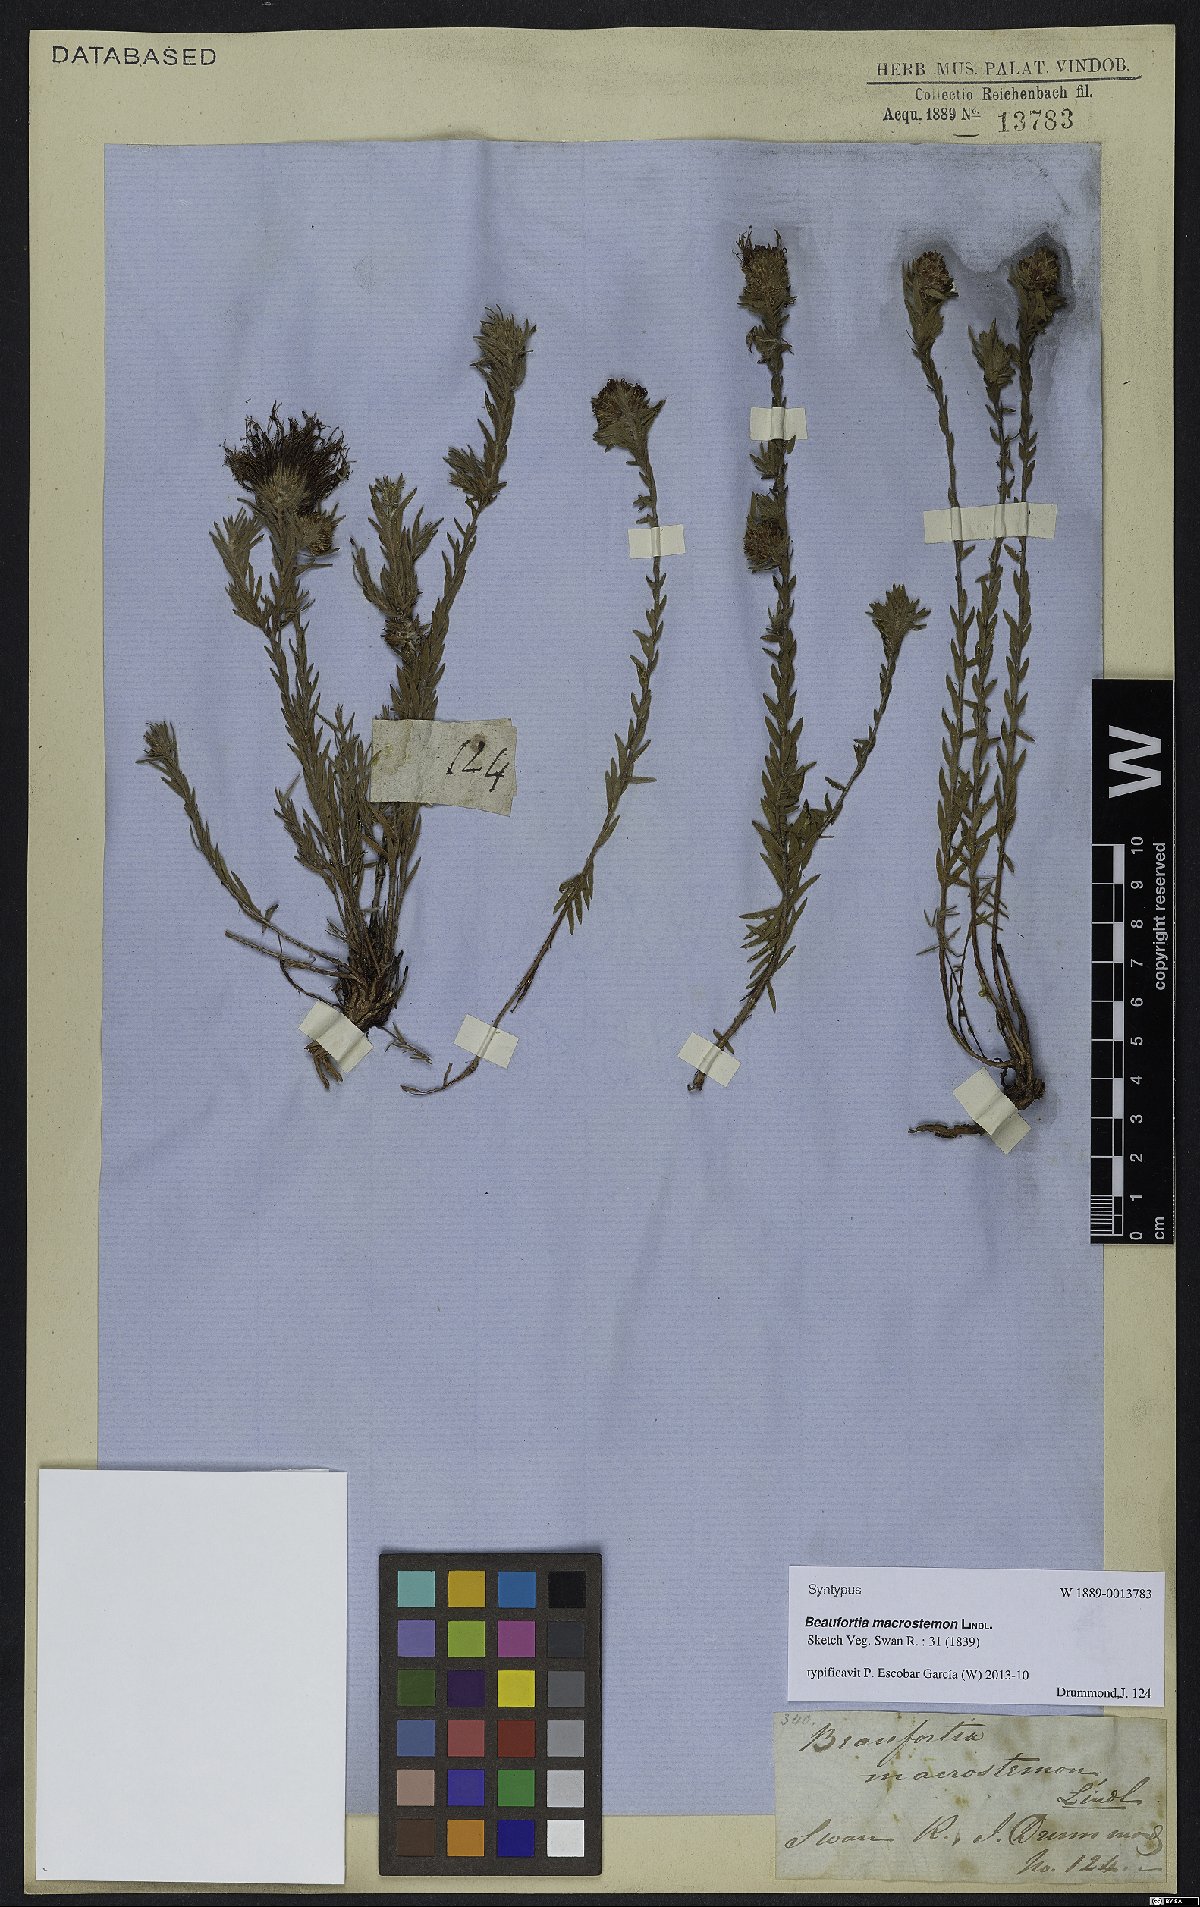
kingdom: Plantae
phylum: Tracheophyta
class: Magnoliopsida
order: Myrtales
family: Myrtaceae
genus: Melaleuca
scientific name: Melaleuca macrostemon
